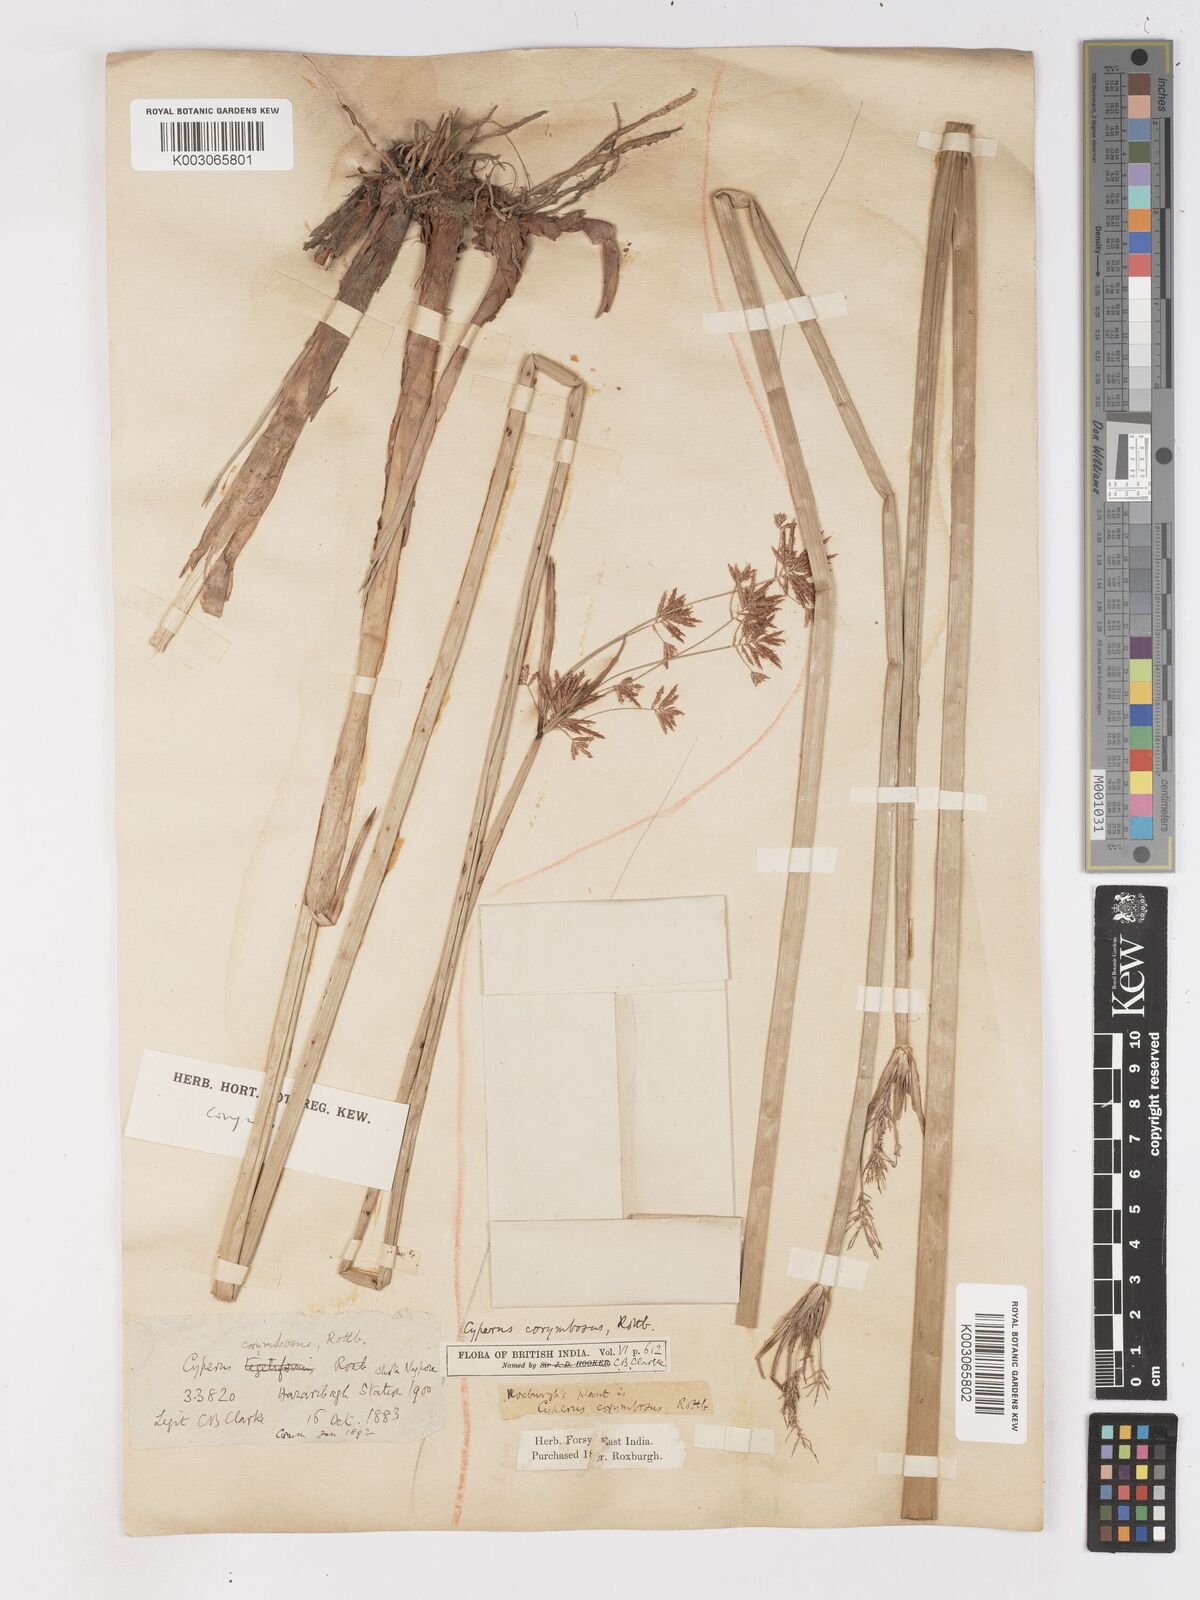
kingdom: Plantae
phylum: Tracheophyta
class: Liliopsida
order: Poales
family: Cyperaceae
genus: Cyperus
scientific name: Cyperus corymbosus
